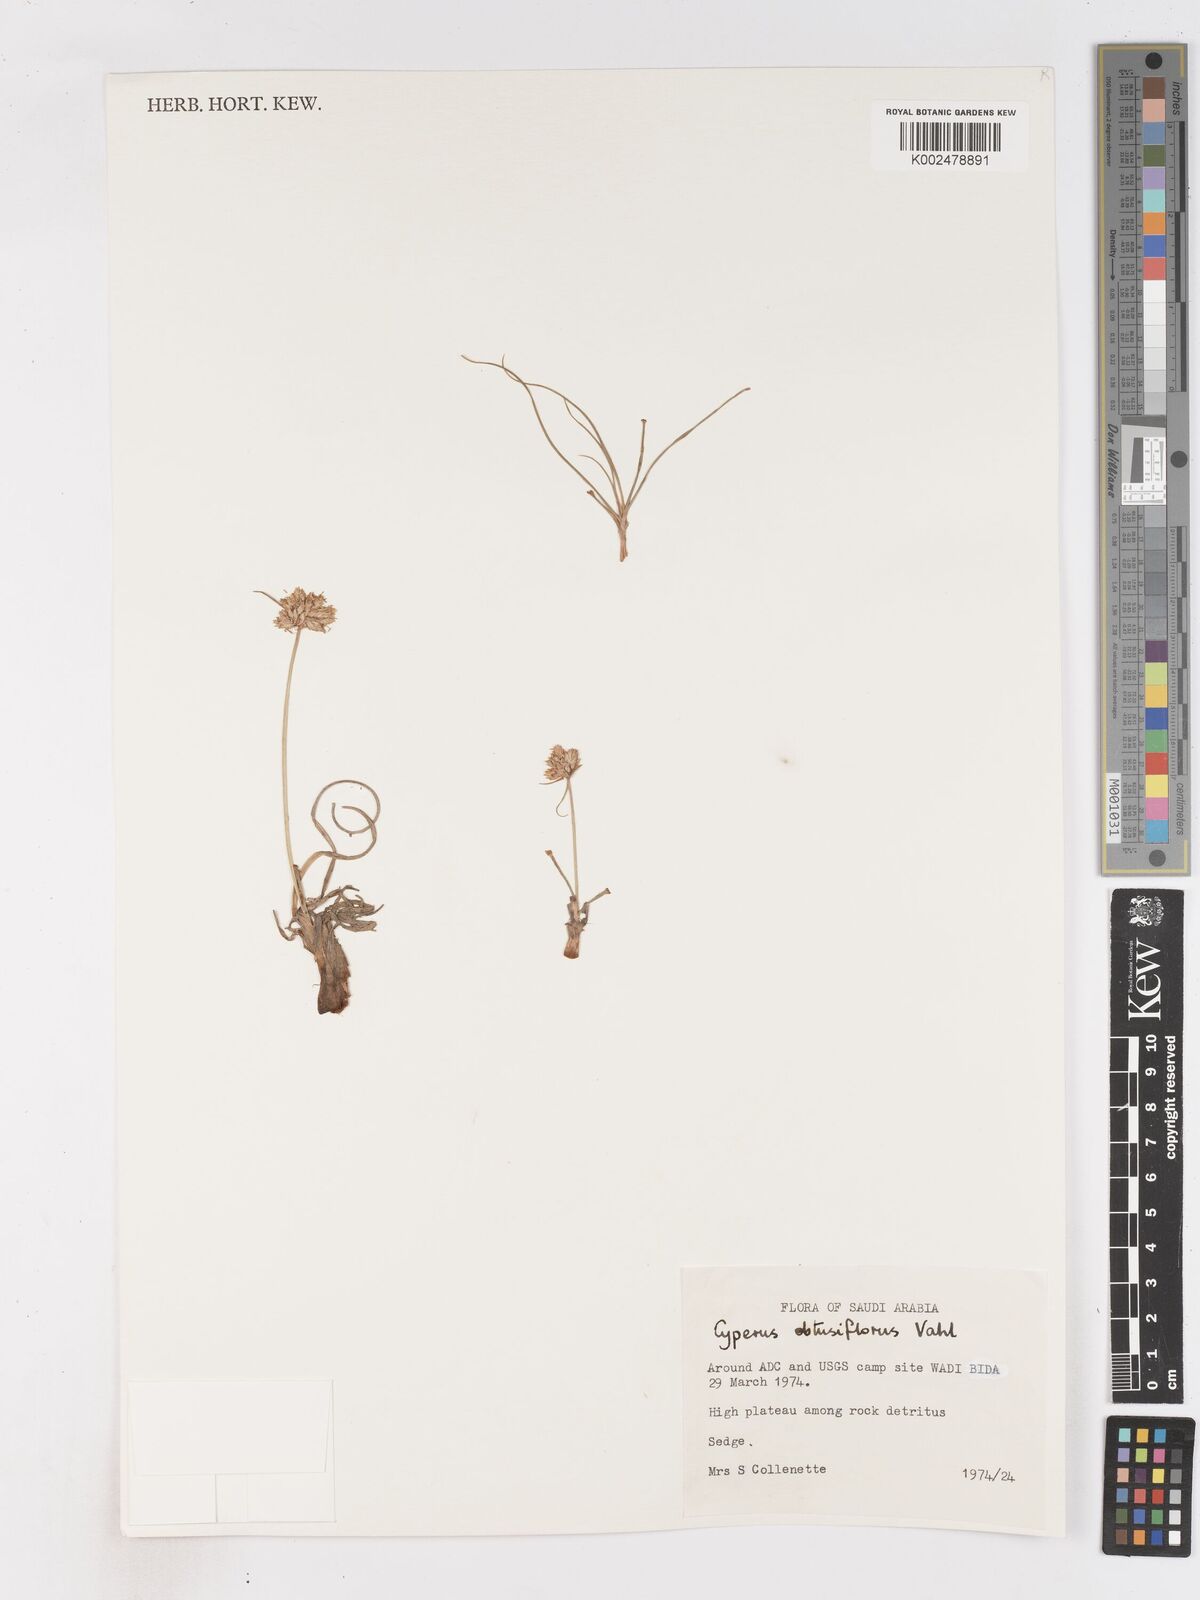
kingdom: Plantae
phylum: Tracheophyta
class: Liliopsida
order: Poales
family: Cyperaceae
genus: Cyperus
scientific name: Cyperus niveus
